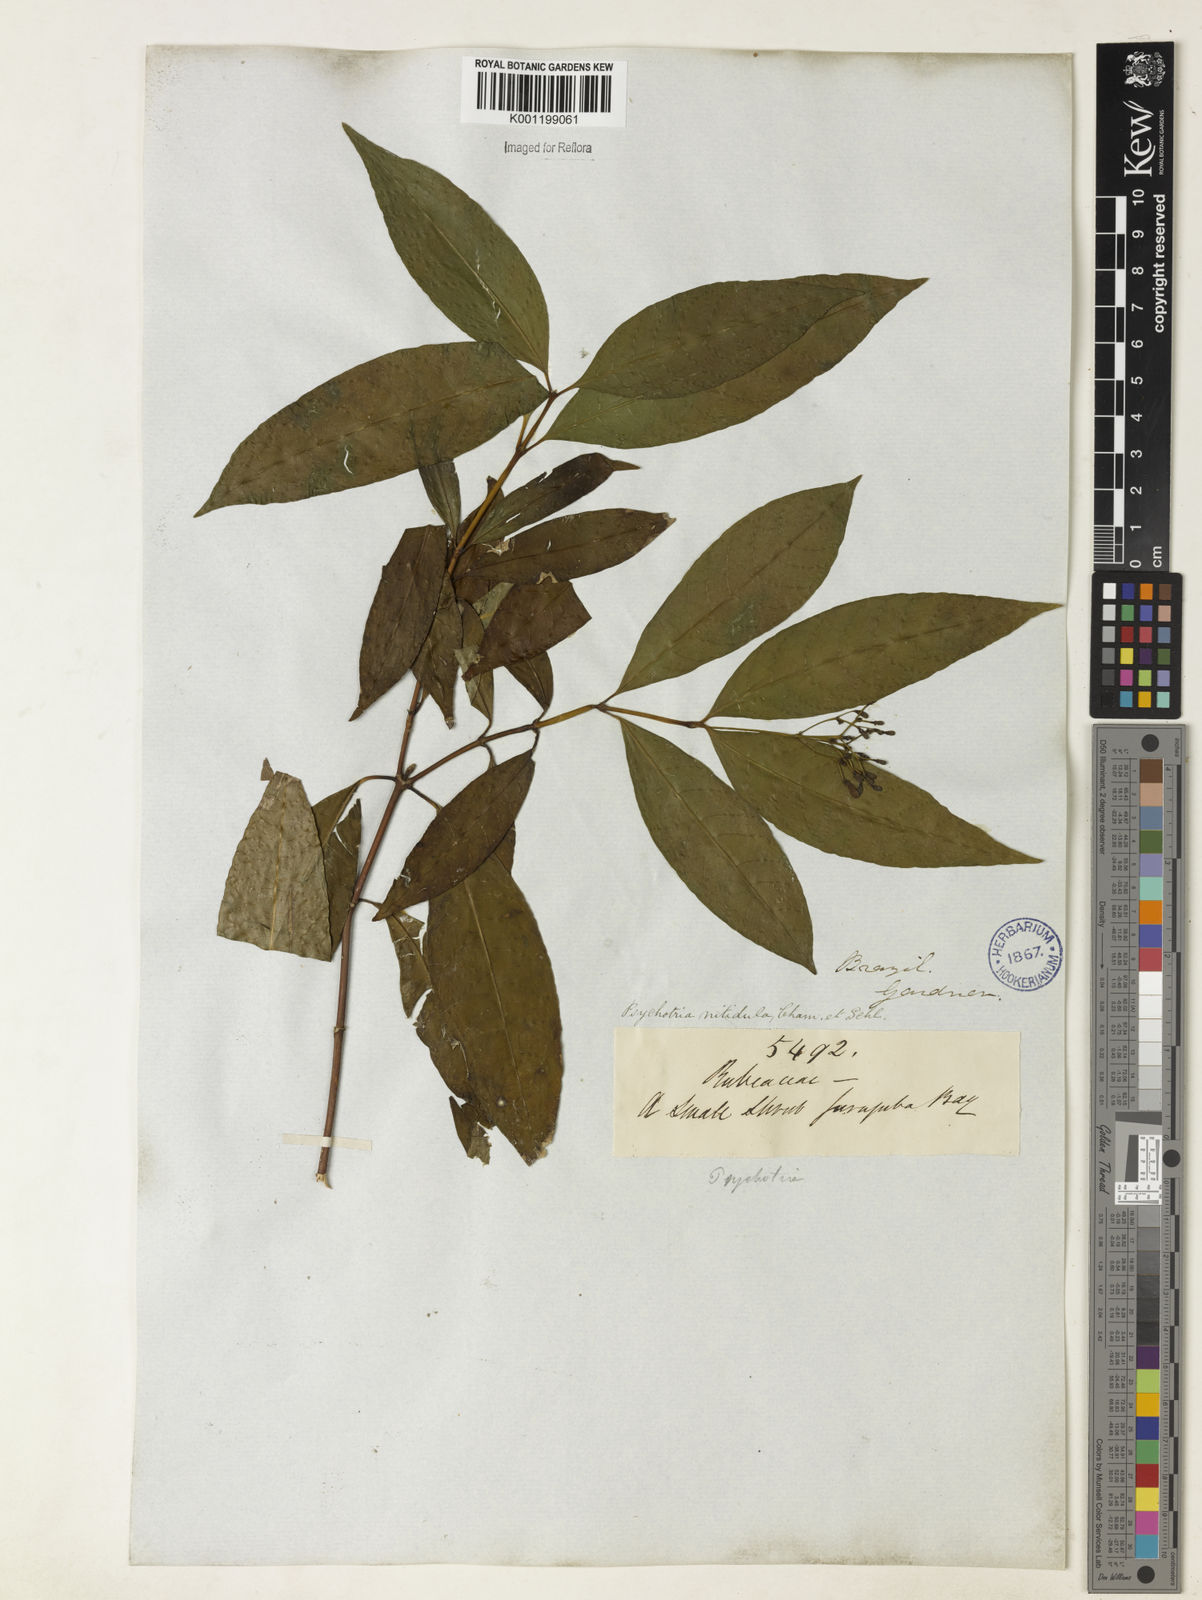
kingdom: Plantae
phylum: Tracheophyta
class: Magnoliopsida
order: Gentianales
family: Rubiaceae
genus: Psychotria
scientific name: Psychotria leiocarpa
